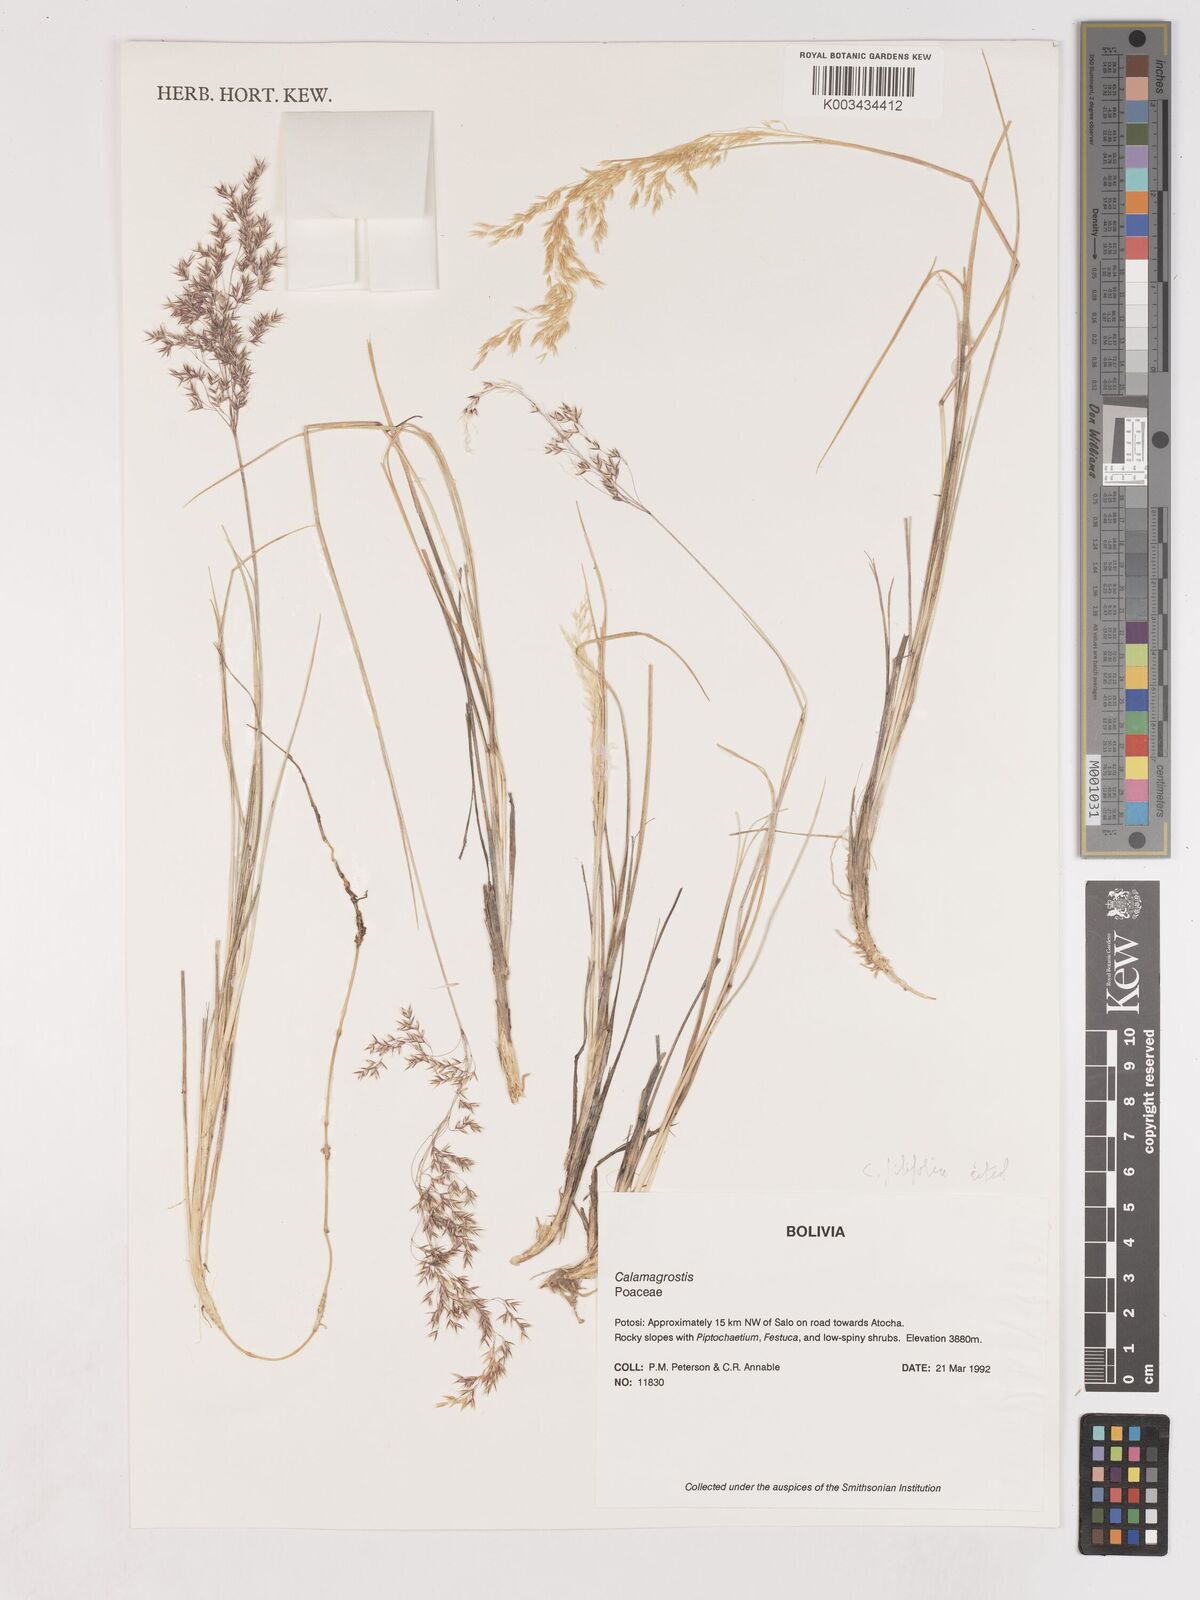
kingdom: Plantae
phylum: Tracheophyta
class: Liliopsida
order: Poales
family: Poaceae
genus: Cinnagrostis
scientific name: Cinnagrostis filifolia
